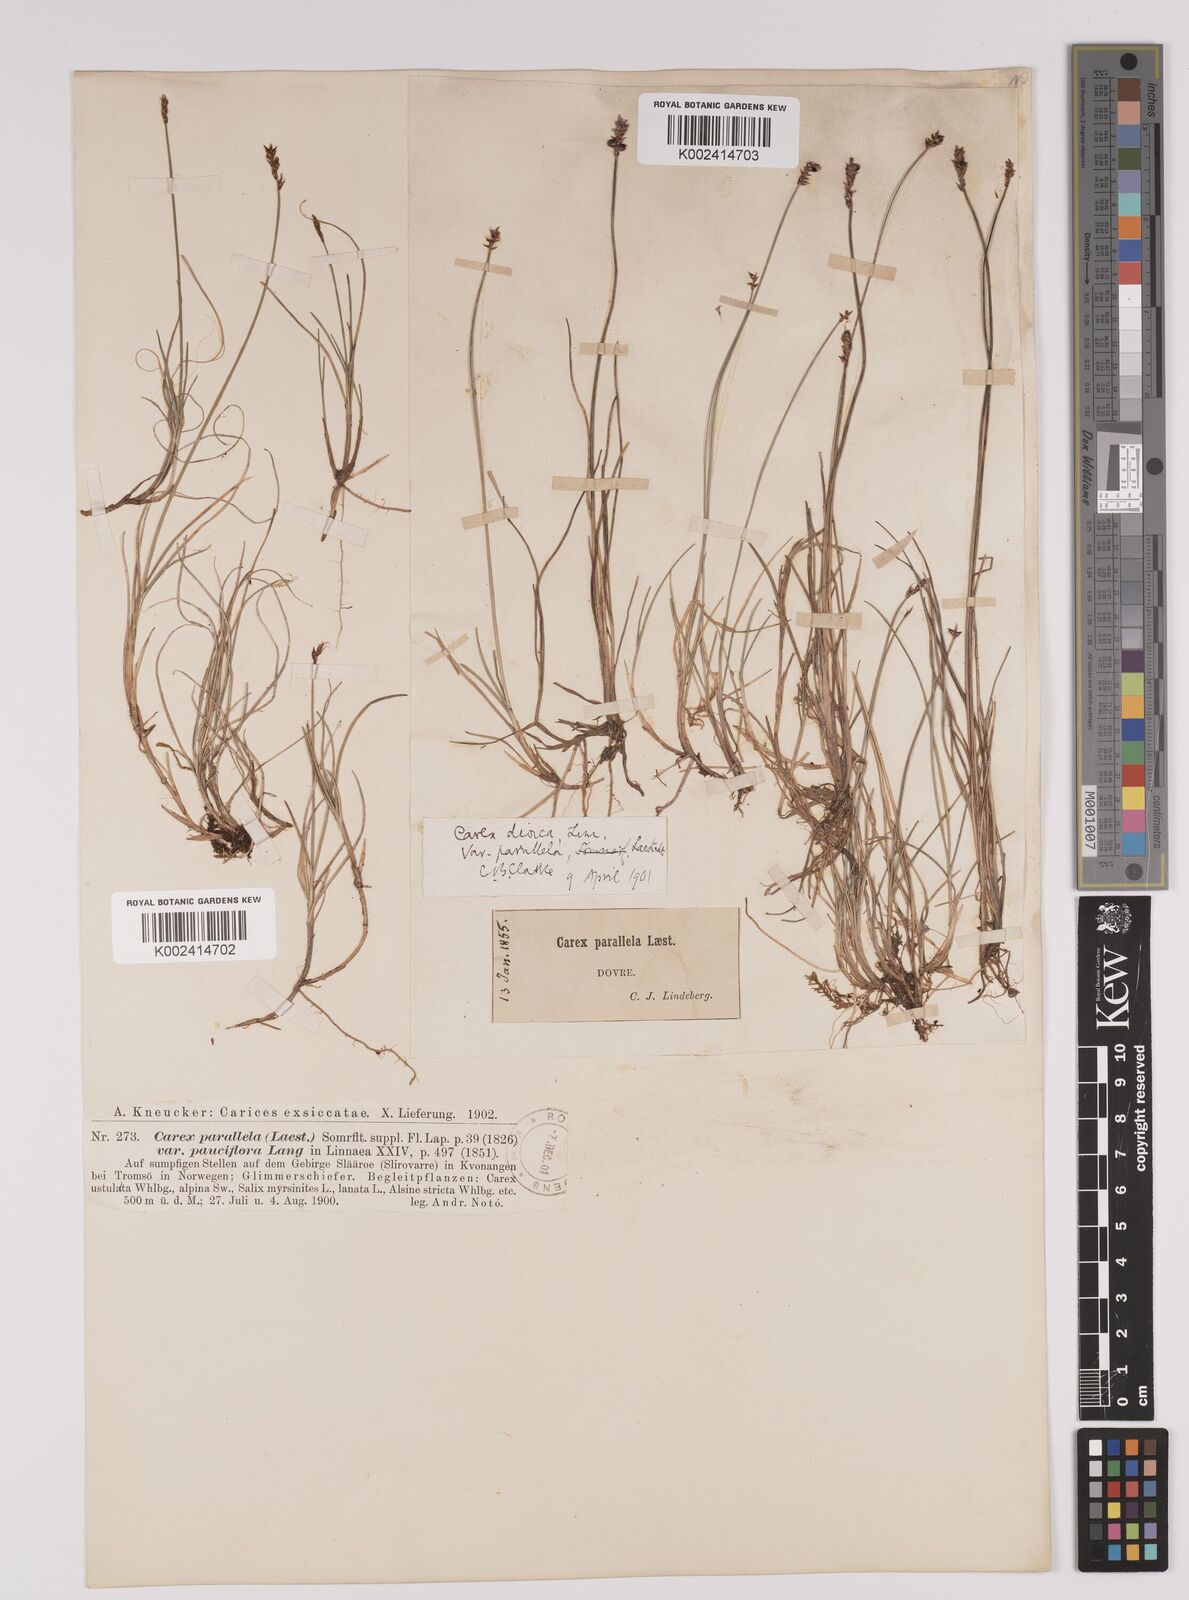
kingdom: Plantae
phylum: Tracheophyta
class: Liliopsida
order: Poales
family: Cyperaceae
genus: Carex
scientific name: Carex parallela
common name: Parallel sedge
